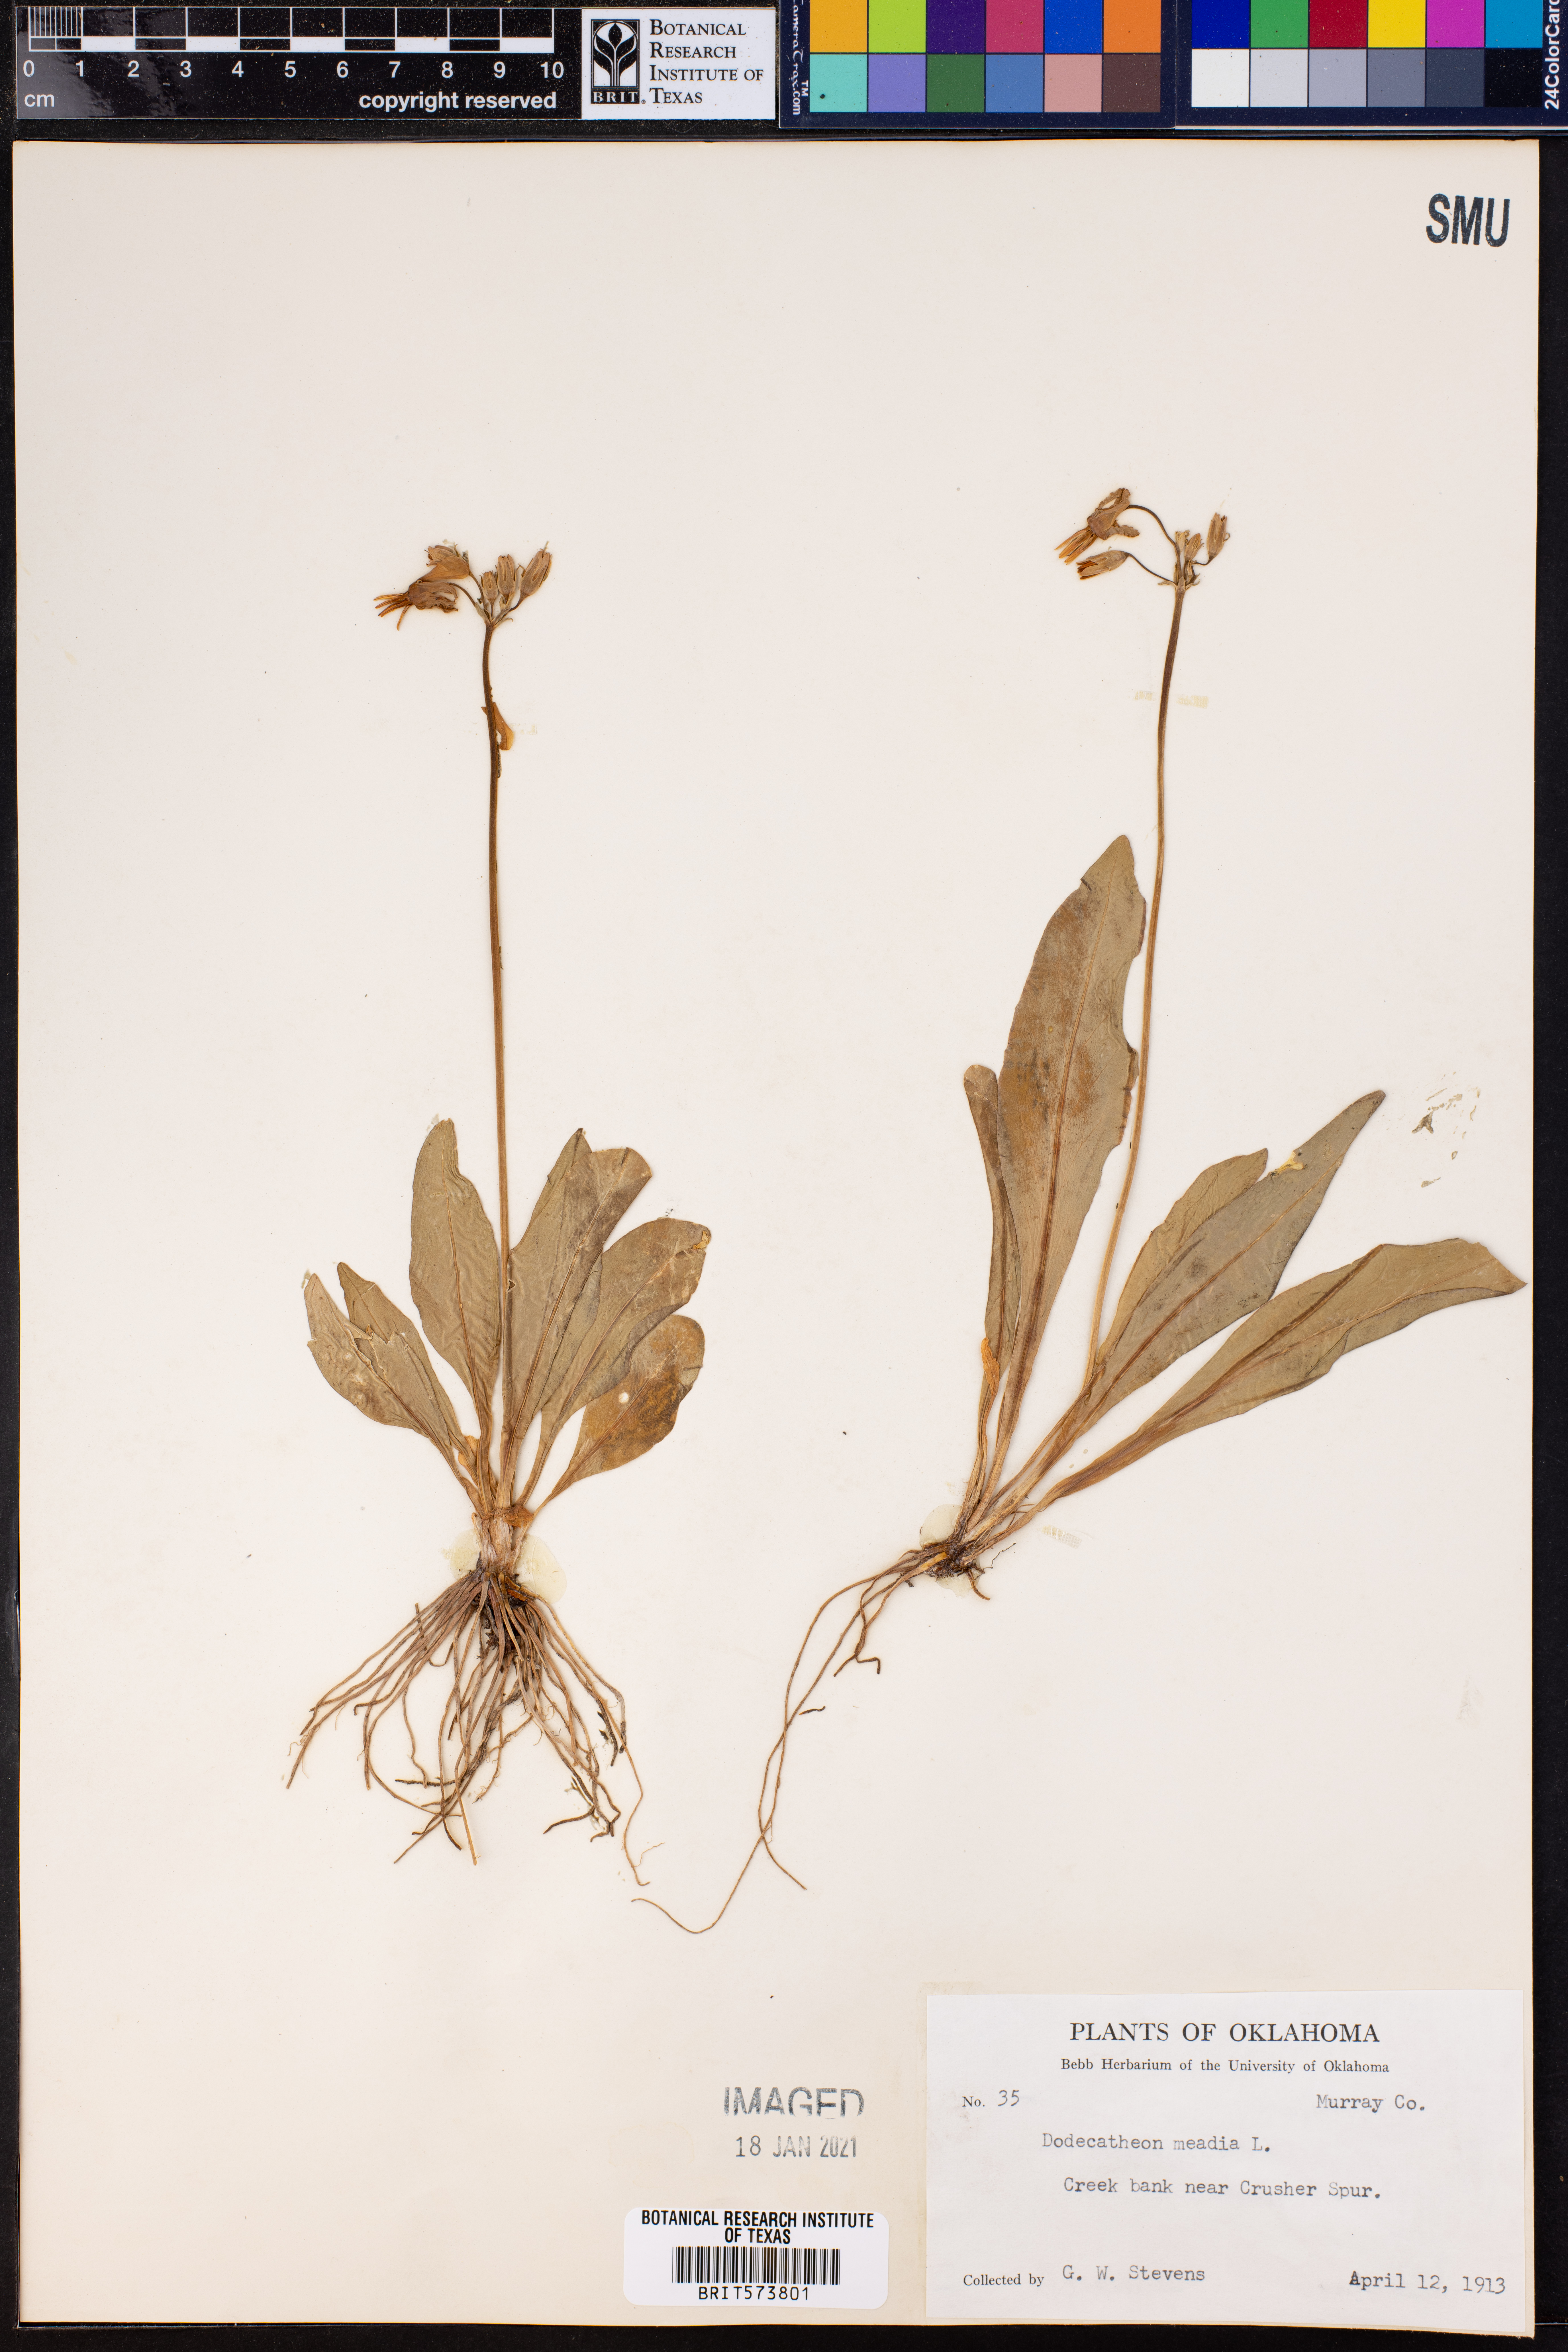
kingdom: Plantae
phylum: Tracheophyta
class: Magnoliopsida
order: Ericales
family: Primulaceae
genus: Dodecatheon
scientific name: Dodecatheon meadia
